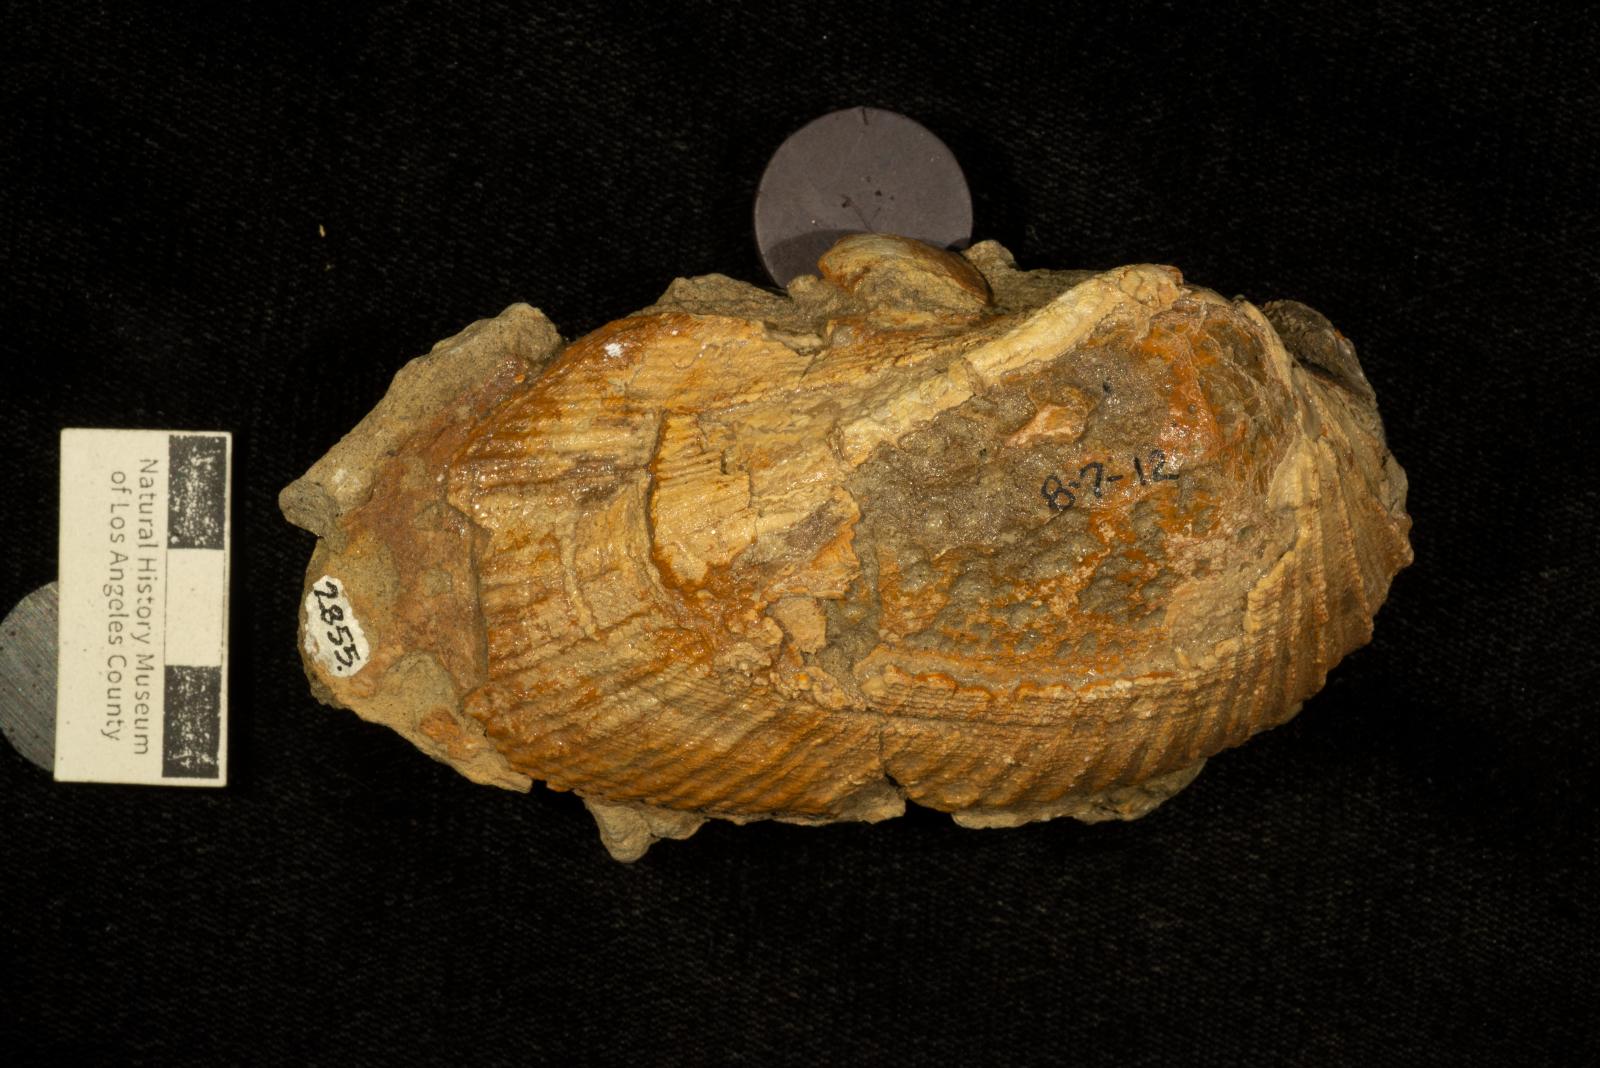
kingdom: Animalia
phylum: Mollusca
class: Bivalvia
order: Arcida
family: Cucullaeidae
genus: Cucullaea
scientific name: Cucullaea
